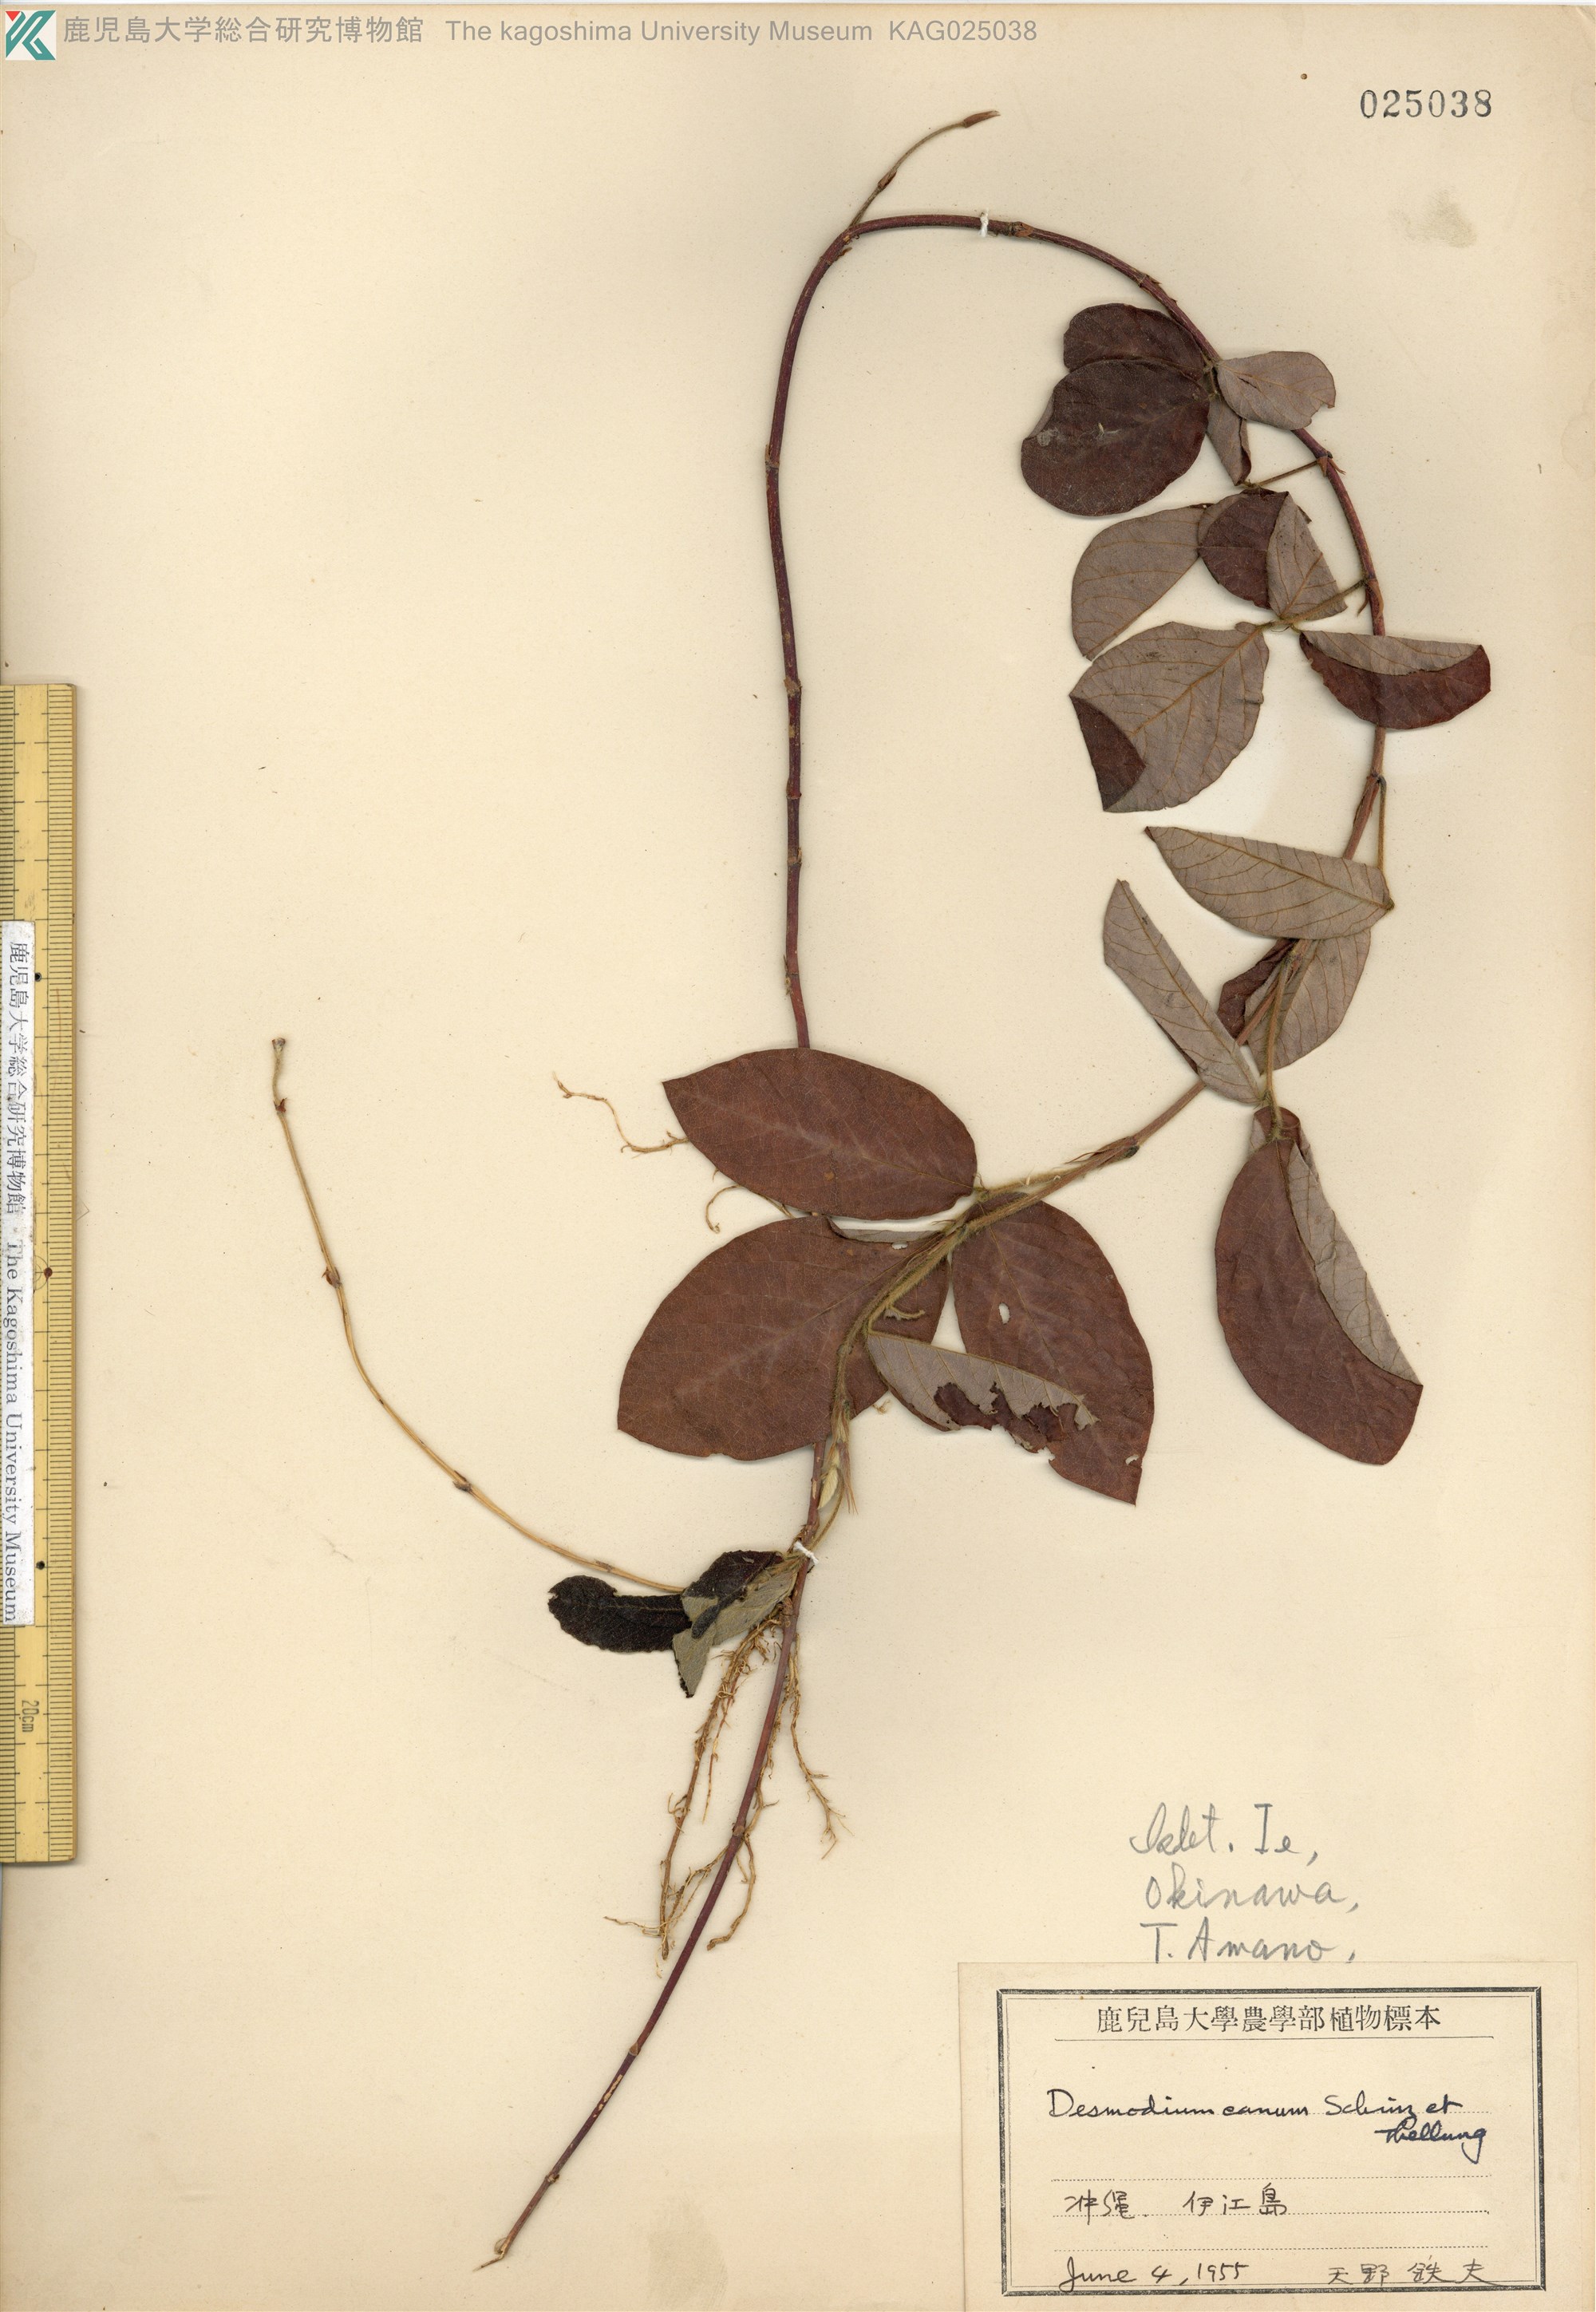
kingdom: Plantae
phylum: Tracheophyta
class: Magnoliopsida
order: Fabales
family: Fabaceae
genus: Desmodium
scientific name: Desmodium incanum
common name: Tickclover
